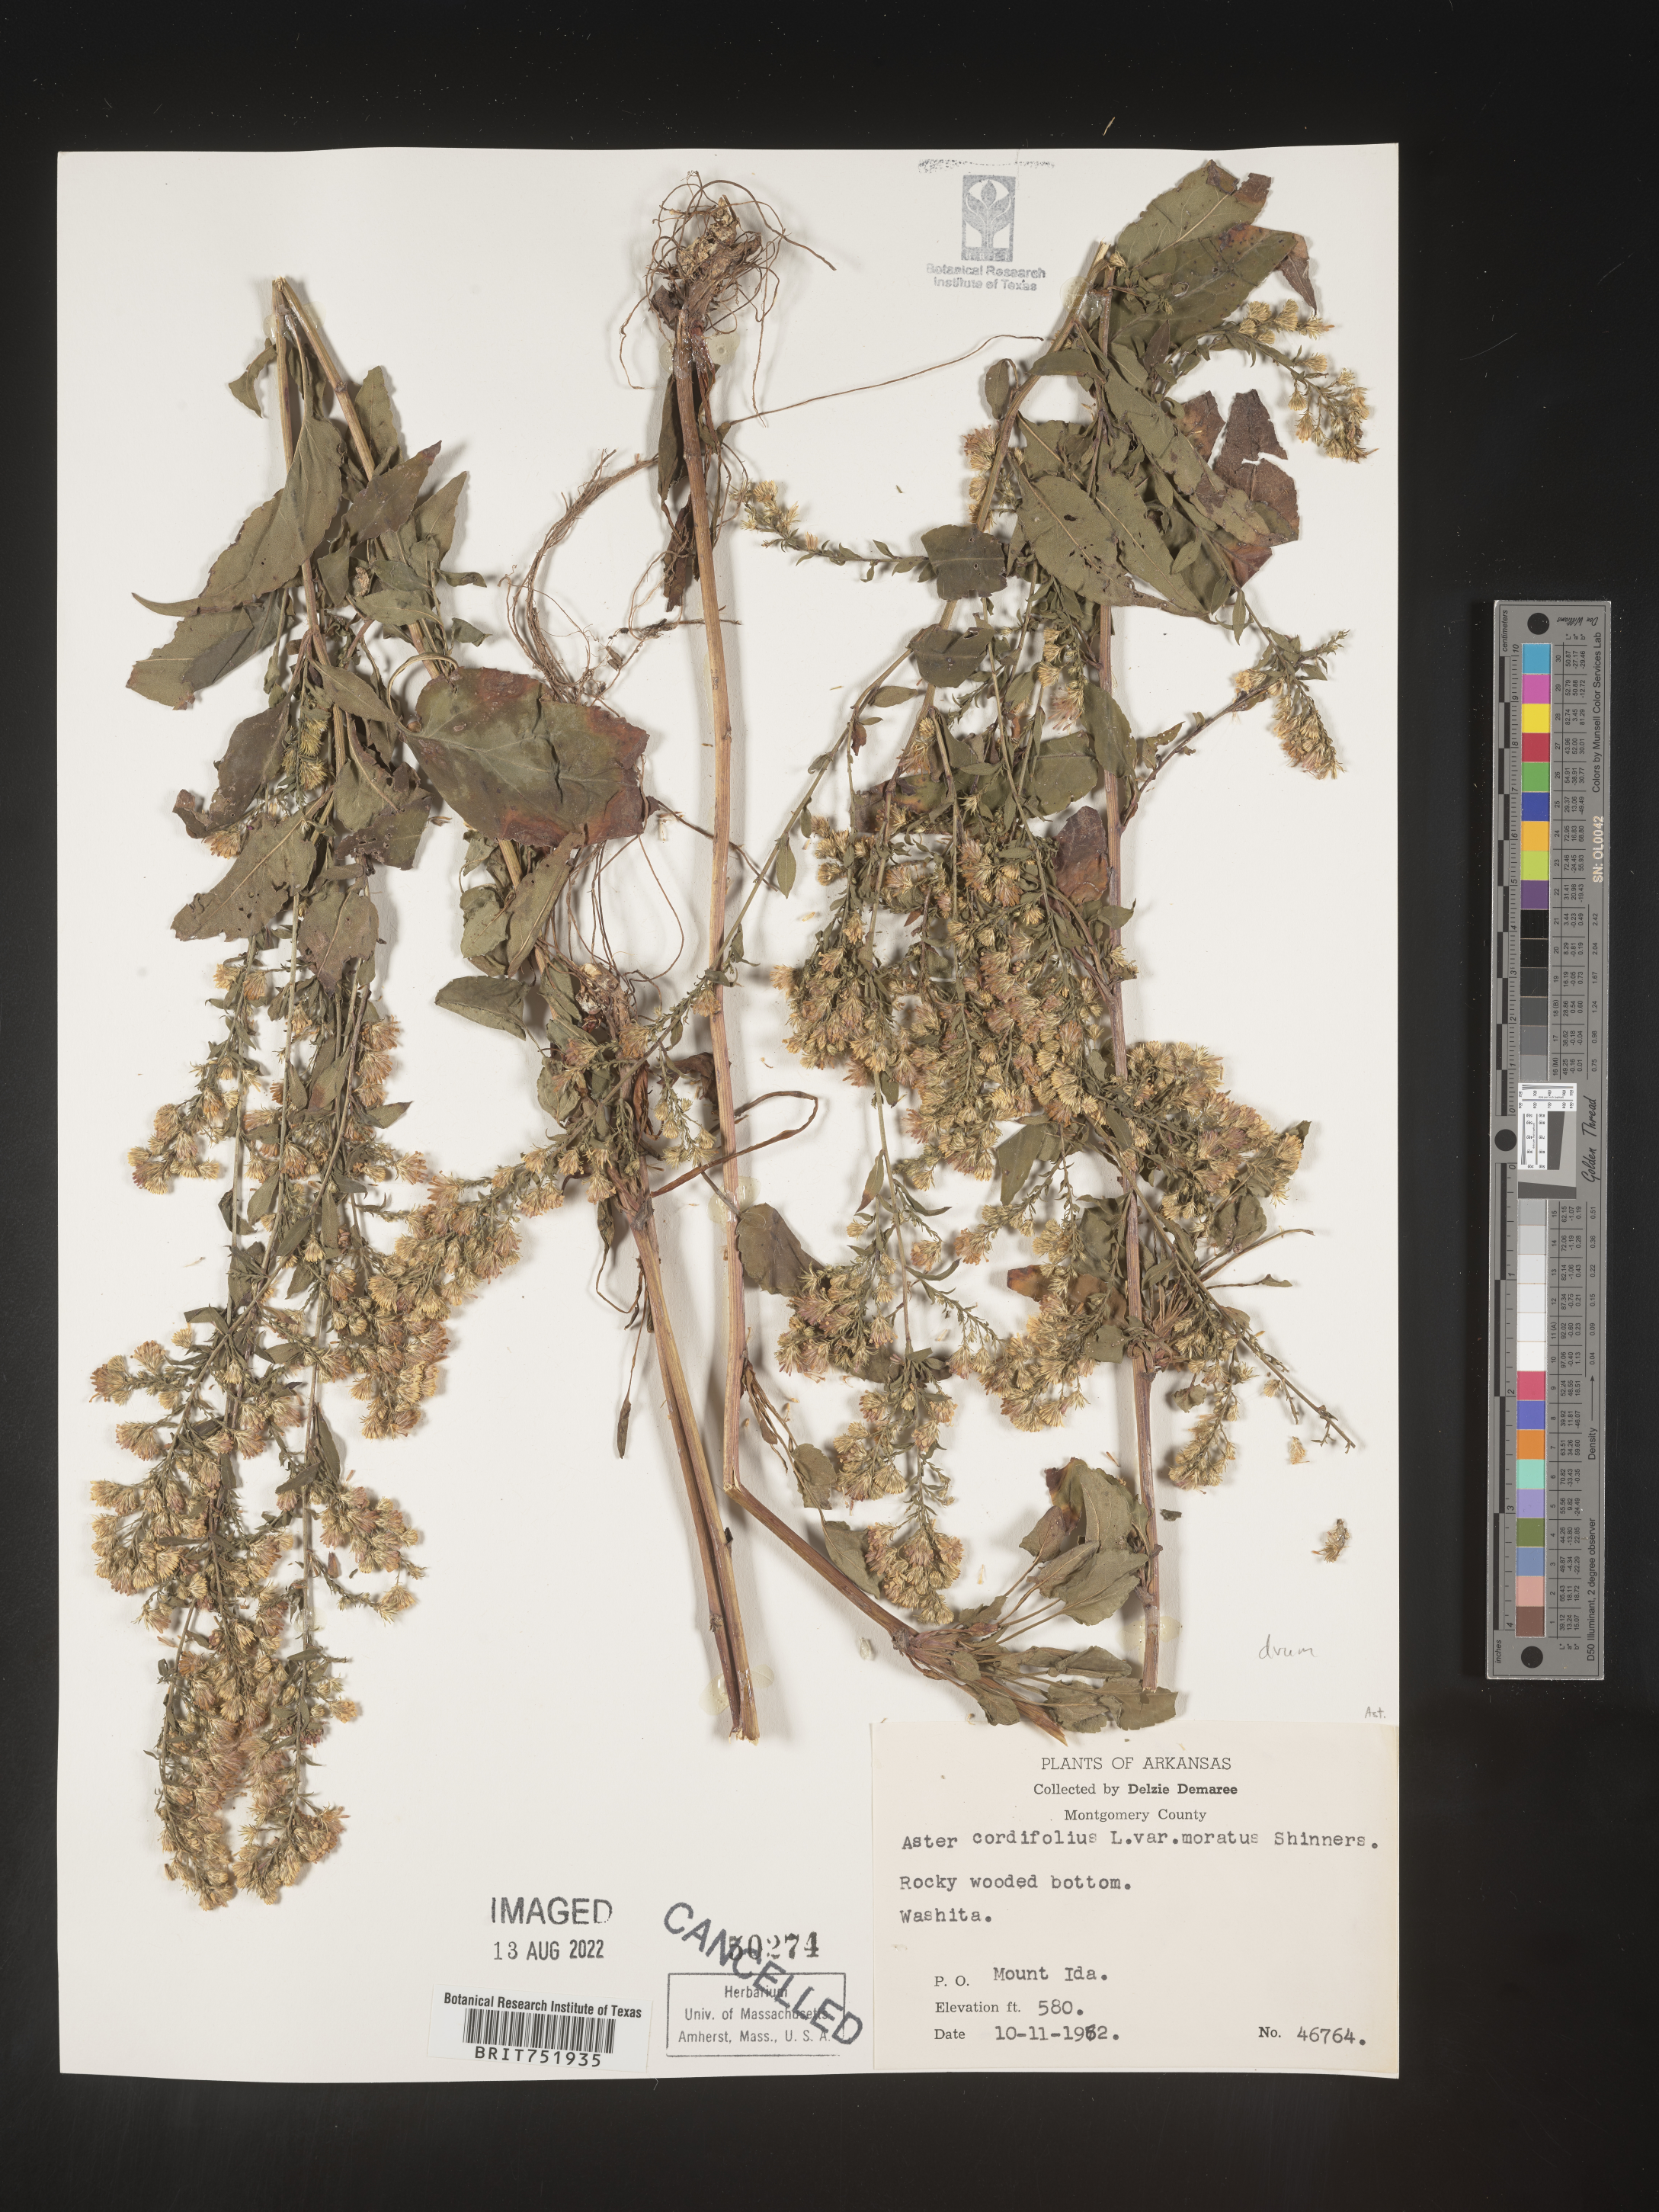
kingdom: Plantae
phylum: Tracheophyta
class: Magnoliopsida
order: Asterales
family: Asteraceae
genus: Symphyotrichum
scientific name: Symphyotrichum drummondii
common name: Drummond's aster
